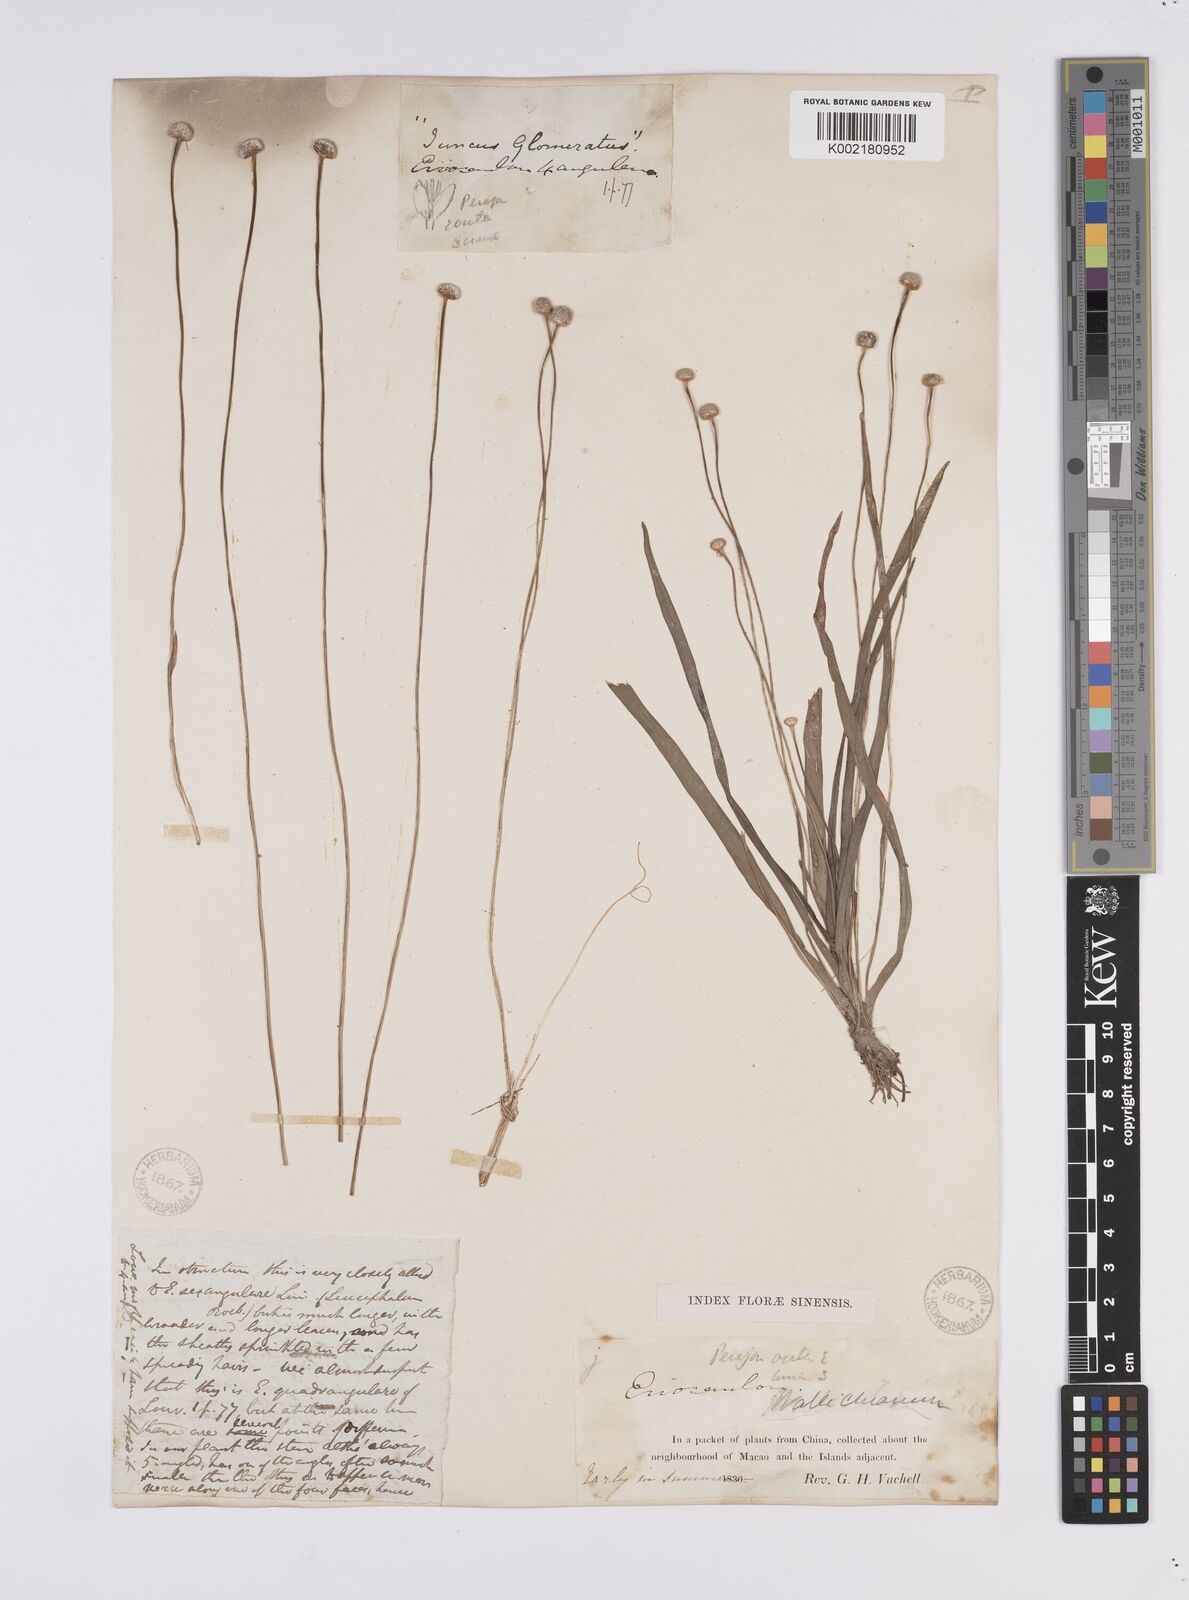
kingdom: Plantae
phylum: Tracheophyta
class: Liliopsida
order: Poales
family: Eriocaulaceae
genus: Eriocaulon
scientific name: Eriocaulon australe
